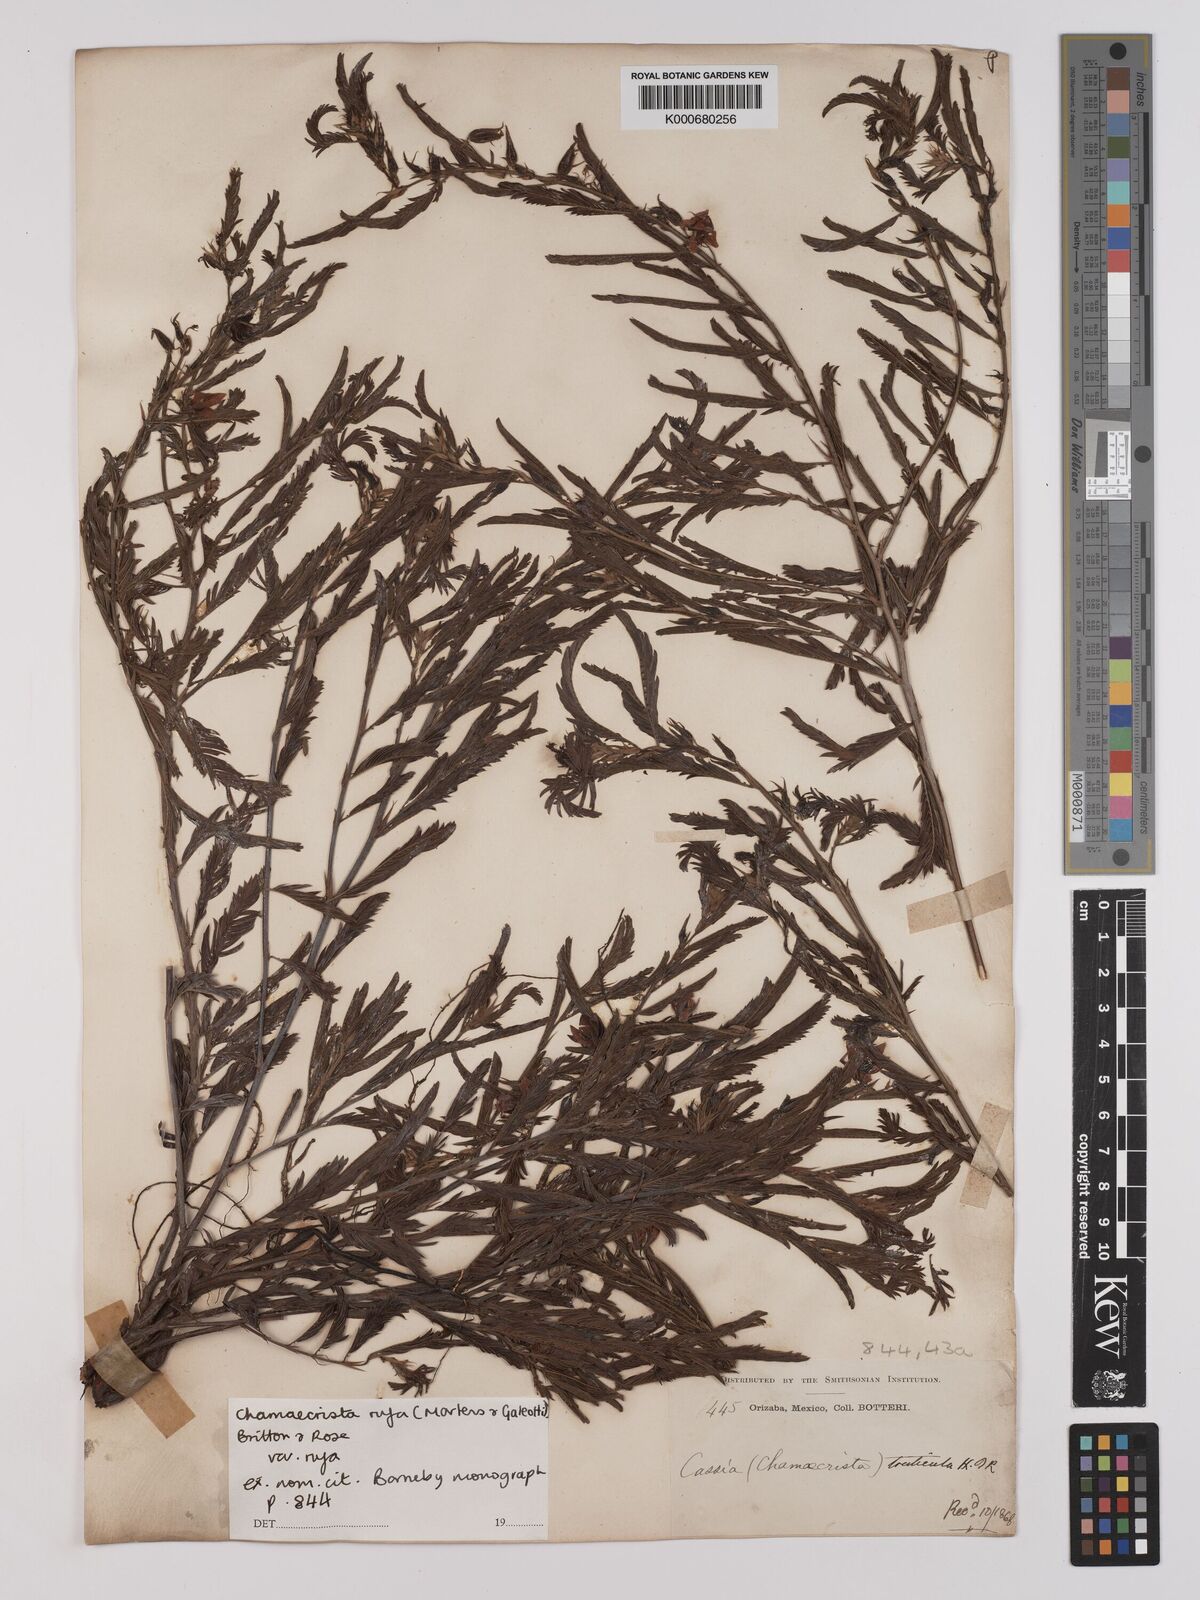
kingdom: Plantae
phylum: Tracheophyta
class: Magnoliopsida
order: Fabales
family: Fabaceae
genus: Chamaecrista
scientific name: Chamaecrista rufa
